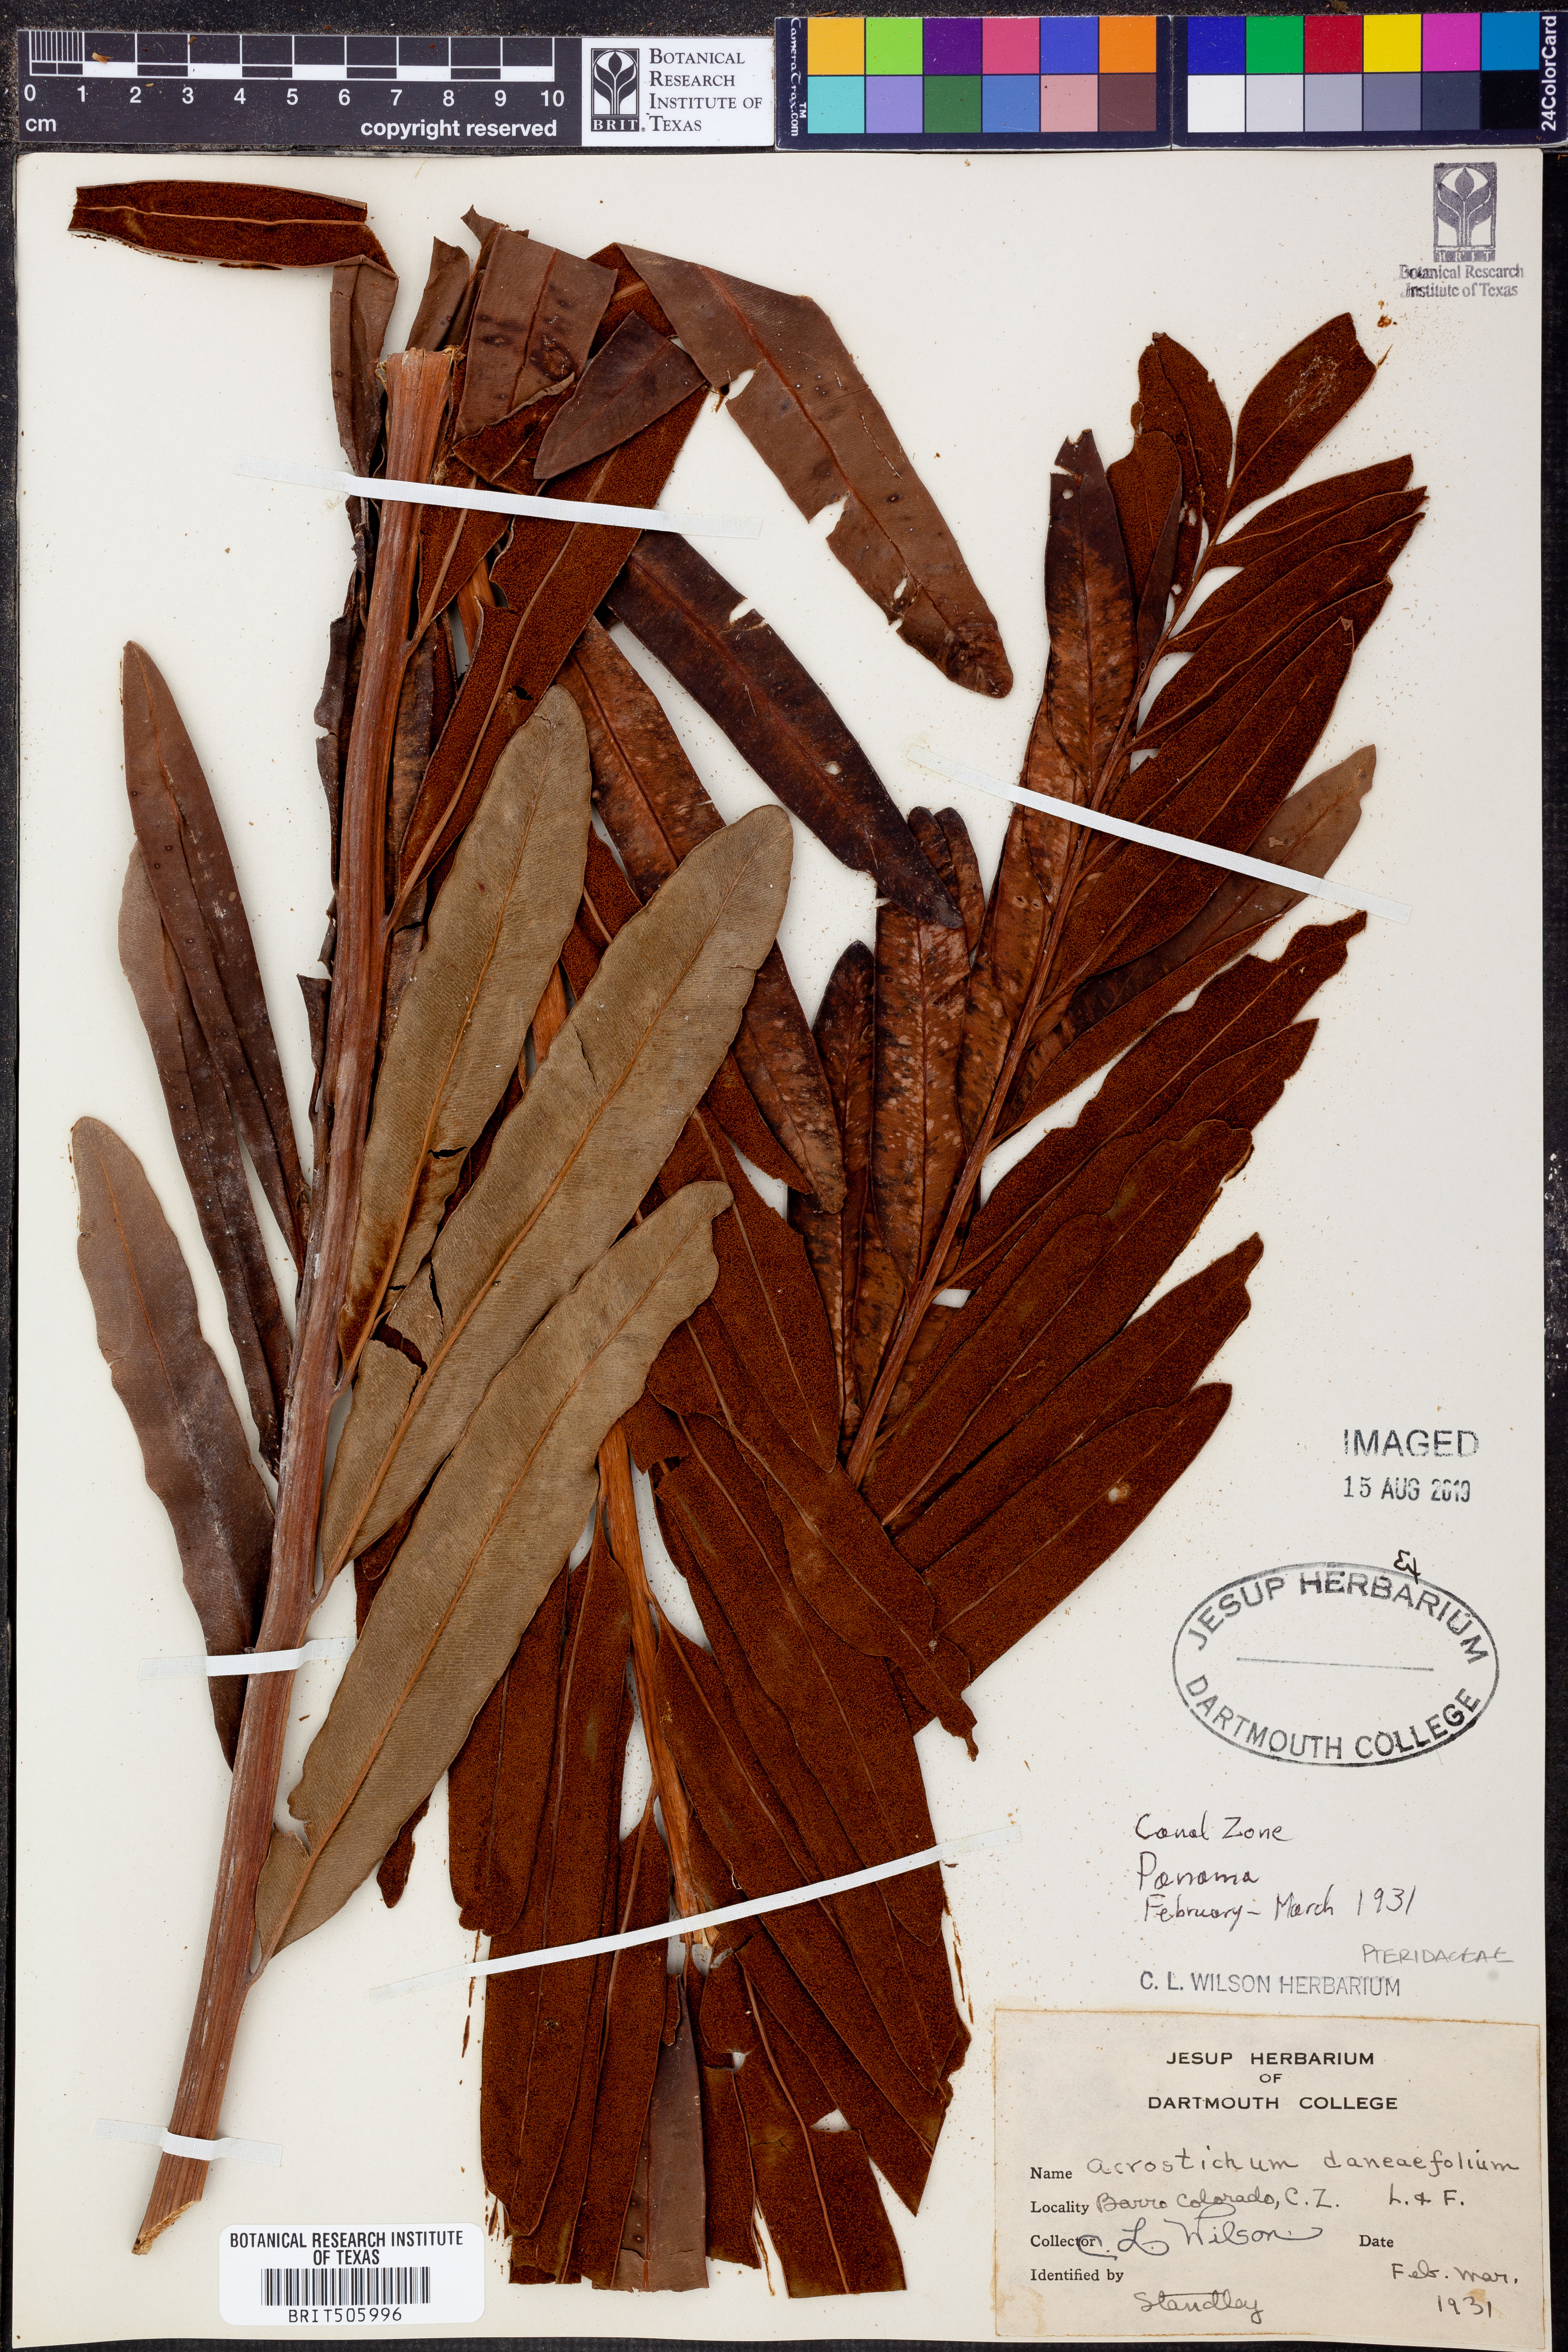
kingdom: Plantae
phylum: Tracheophyta
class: Polypodiopsida
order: Polypodiales
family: Pteridaceae
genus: Acrostichum
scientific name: Acrostichum danaeifolium
